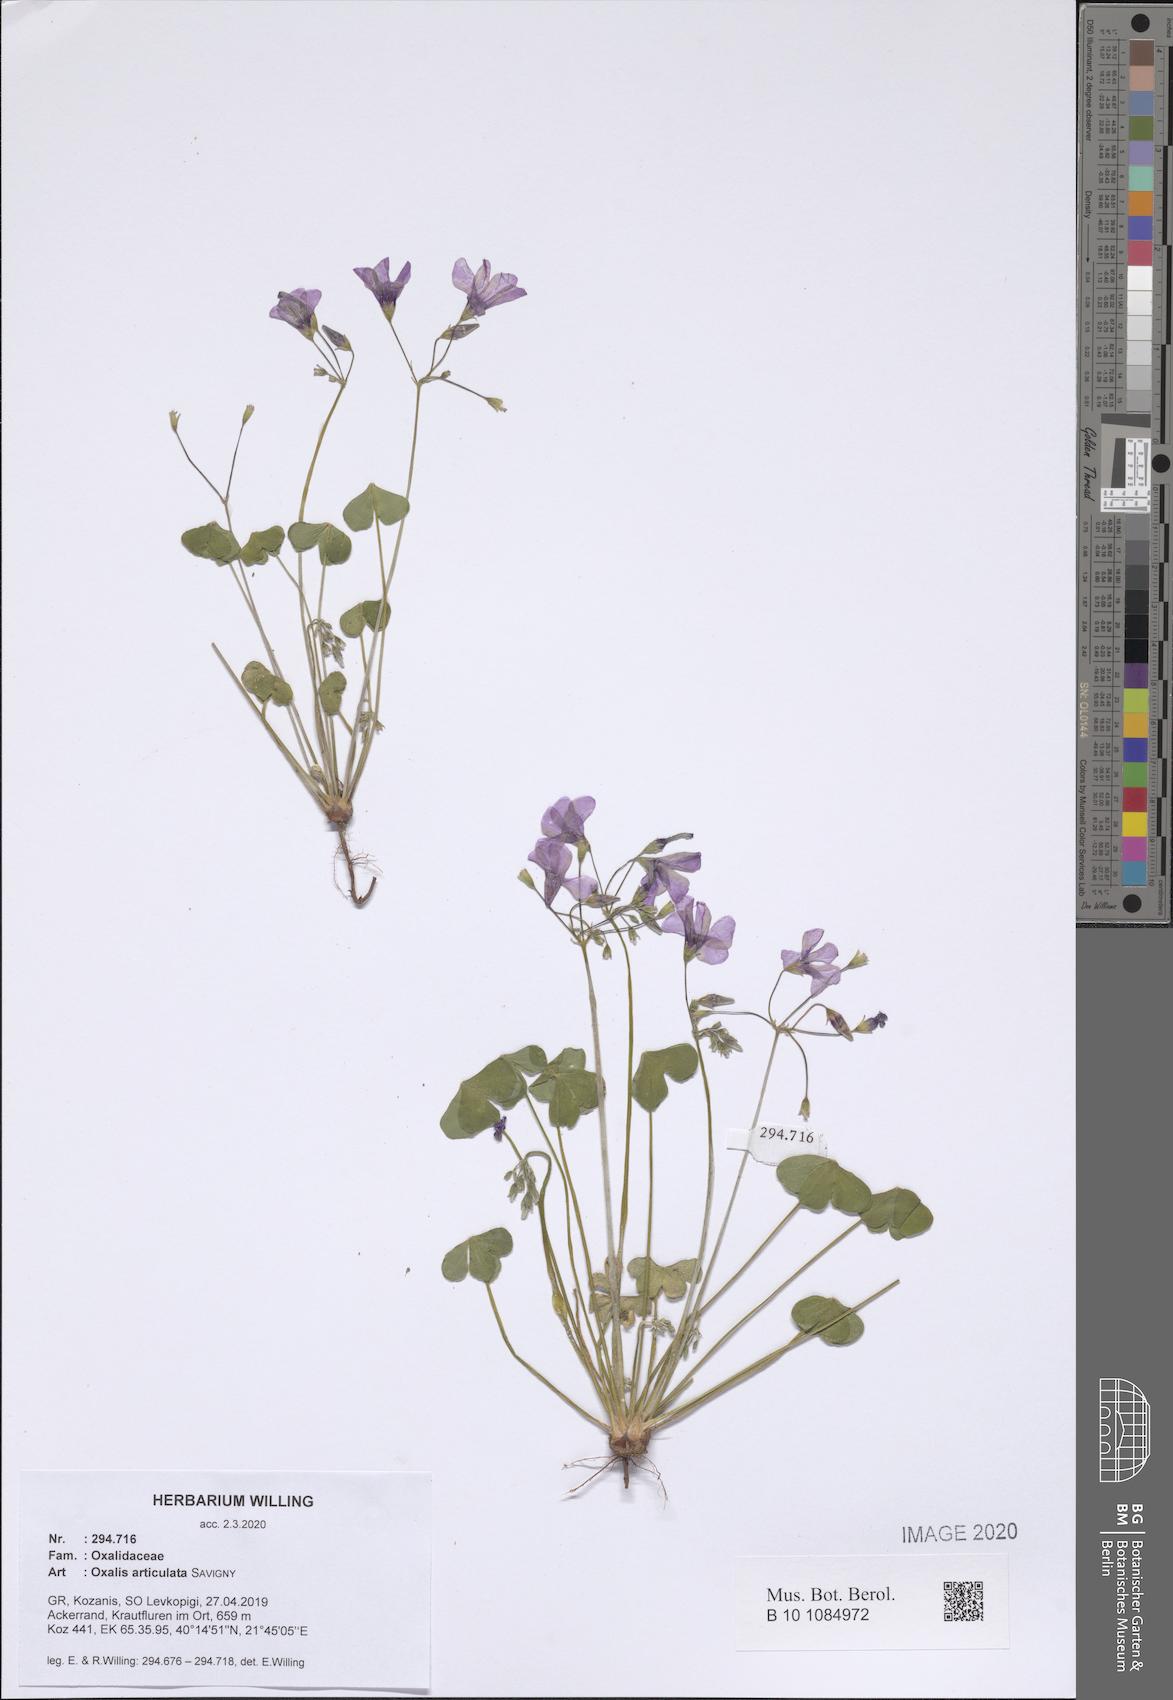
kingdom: Plantae
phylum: Tracheophyta
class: Magnoliopsida
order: Oxalidales
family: Oxalidaceae
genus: Oxalis
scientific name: Oxalis articulata
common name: Pink-sorrel
